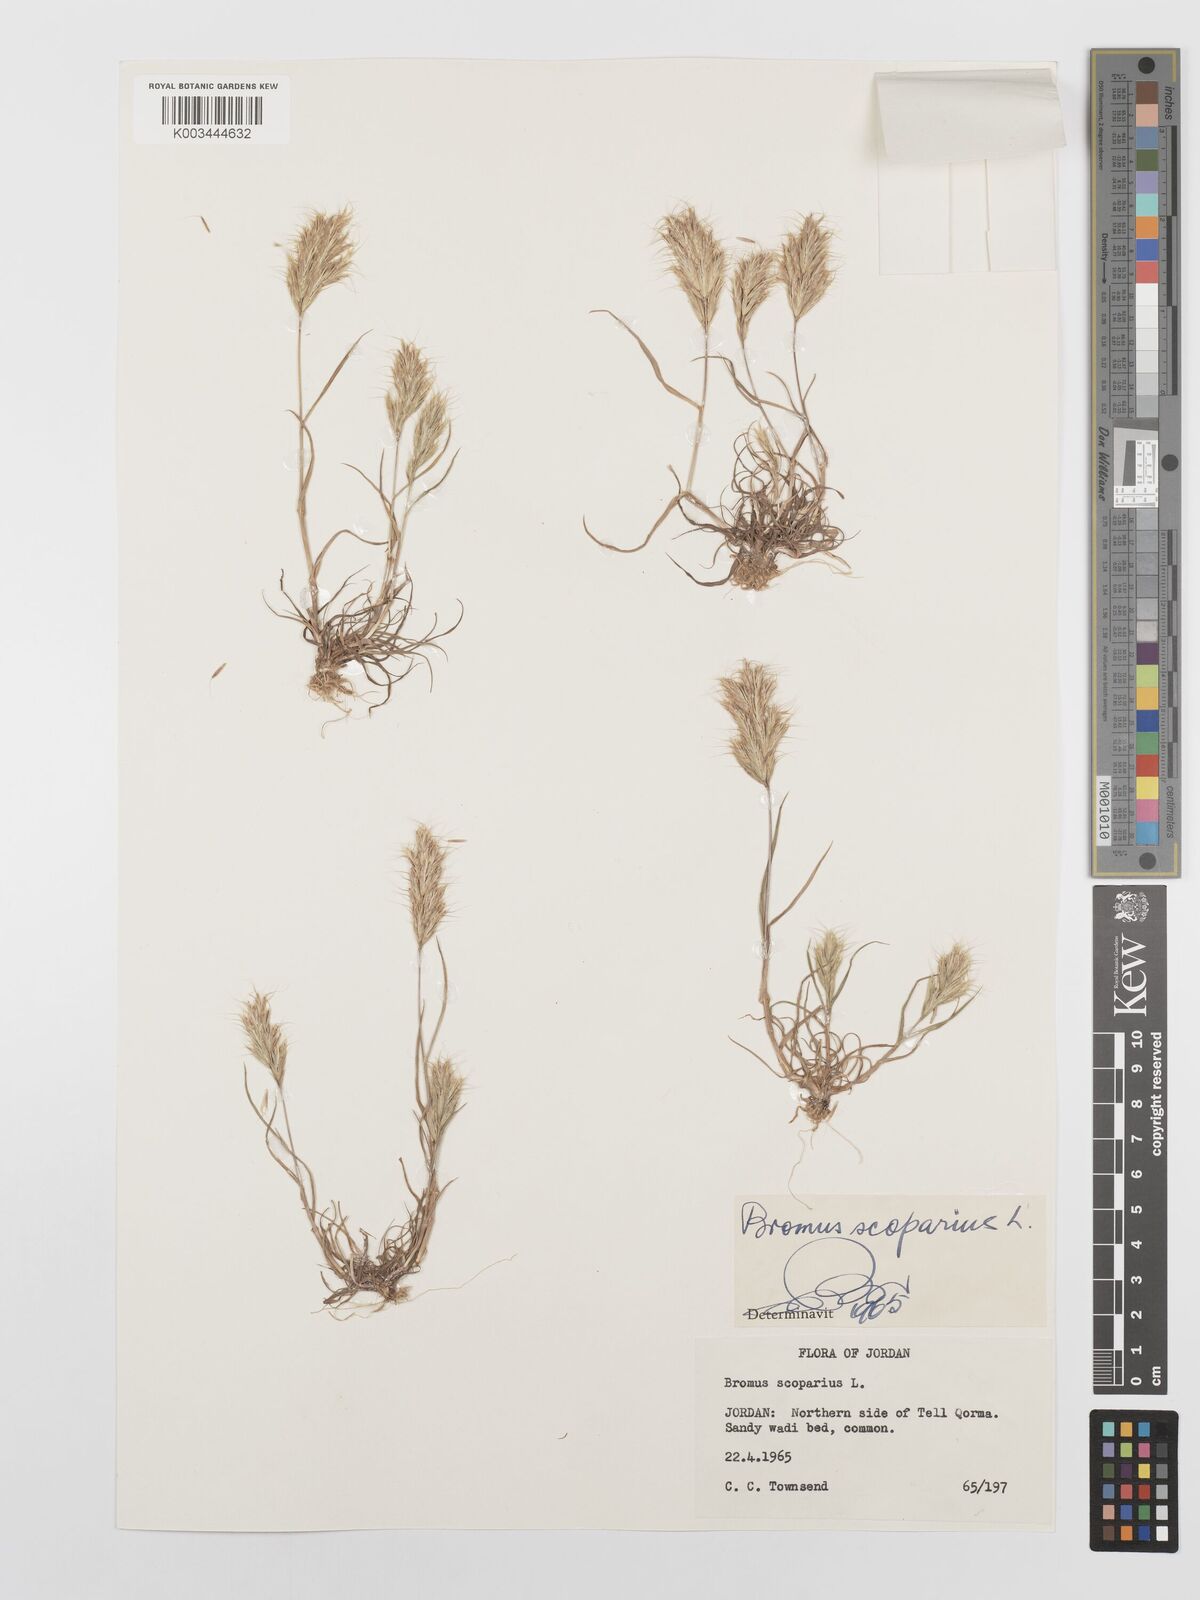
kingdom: Plantae
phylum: Tracheophyta
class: Liliopsida
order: Poales
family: Poaceae
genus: Bromus
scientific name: Bromus scoparius
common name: Broom brome
